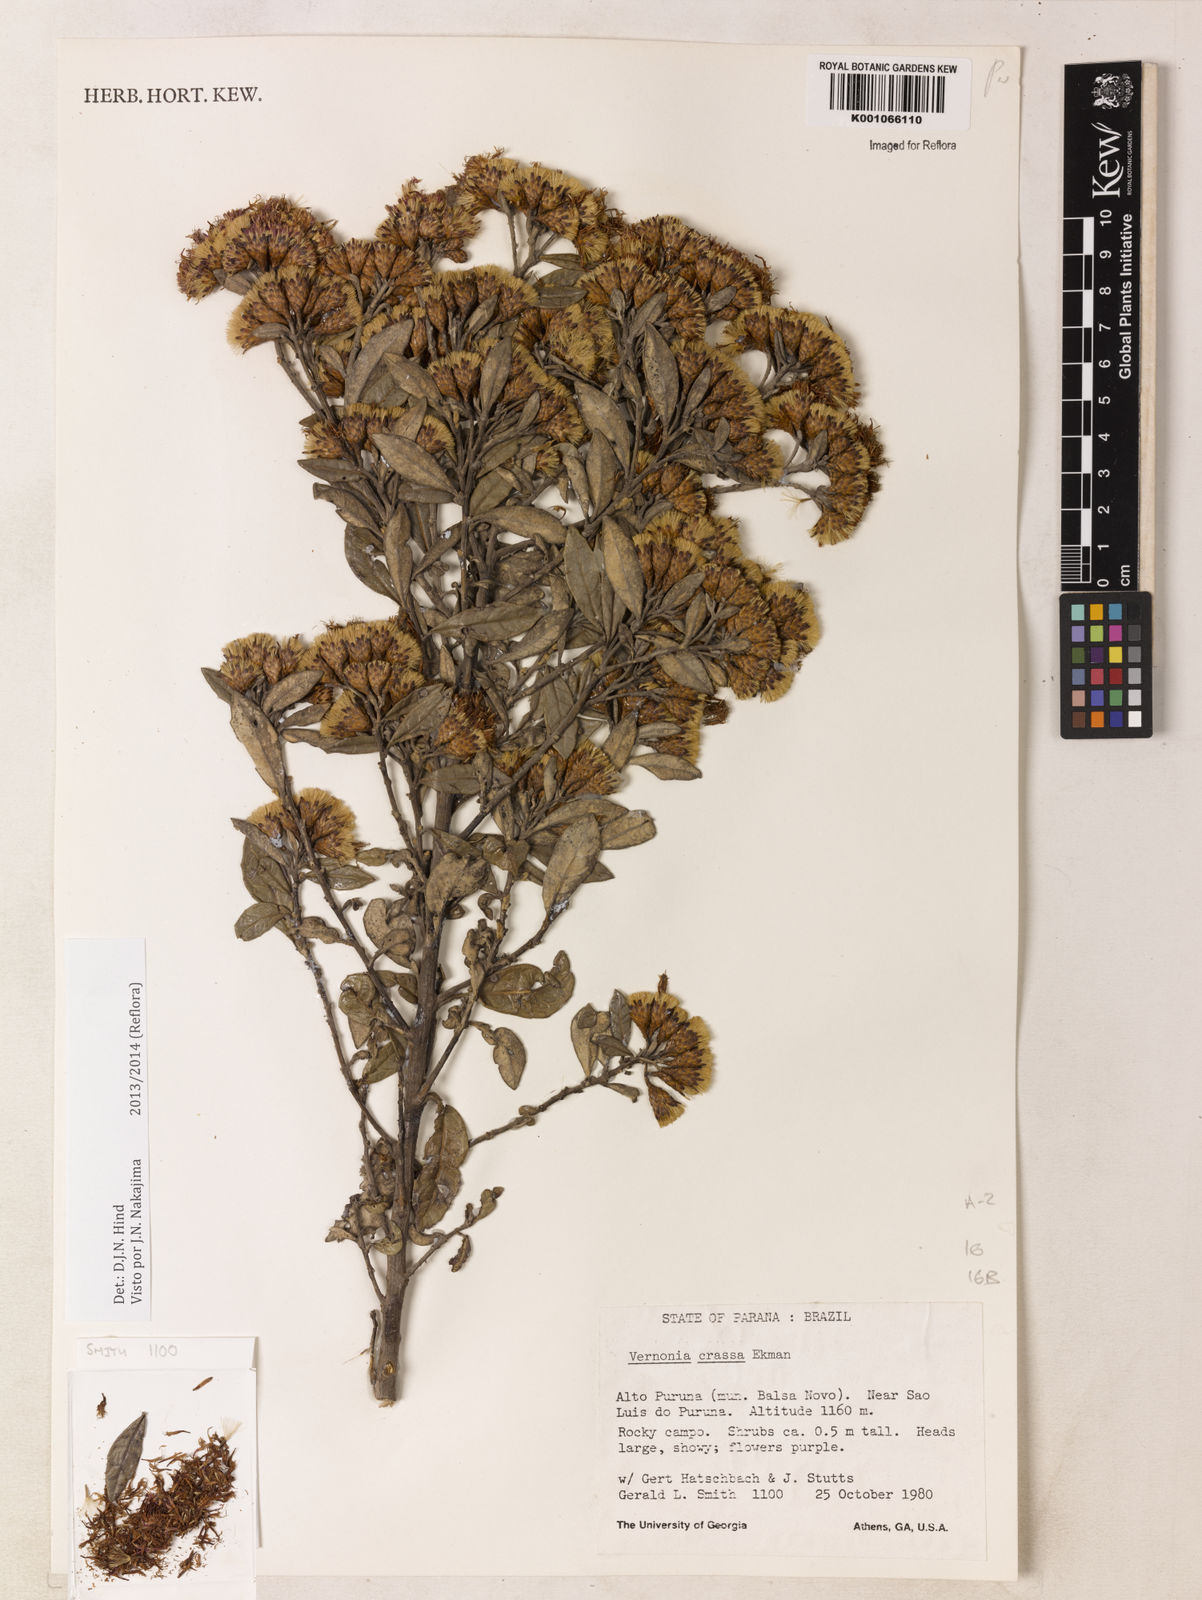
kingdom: Plantae
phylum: Tracheophyta
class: Magnoliopsida
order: Asterales
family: Asteraceae
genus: Vernonanthura
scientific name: Vernonanthura crassa
